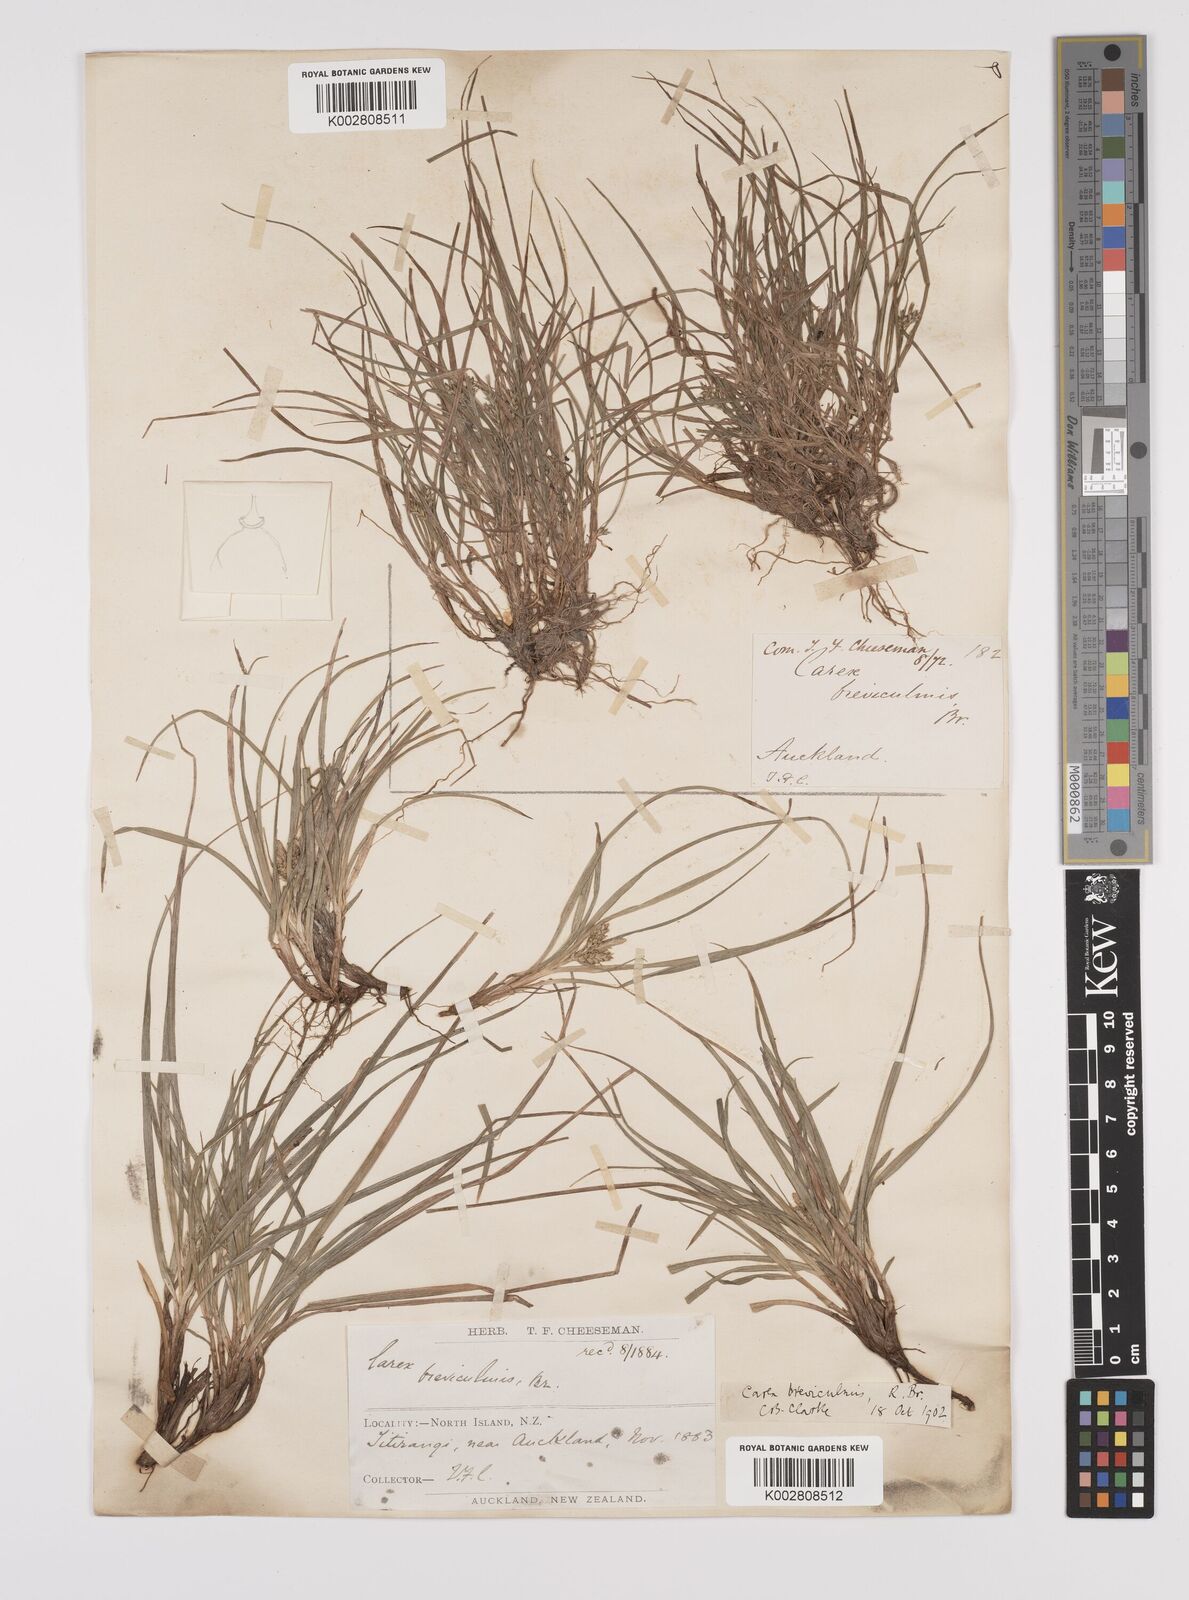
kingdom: Plantae
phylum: Tracheophyta
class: Liliopsida
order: Poales
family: Cyperaceae
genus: Carex
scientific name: Carex breviculmis
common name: Asian shortstem sedge
